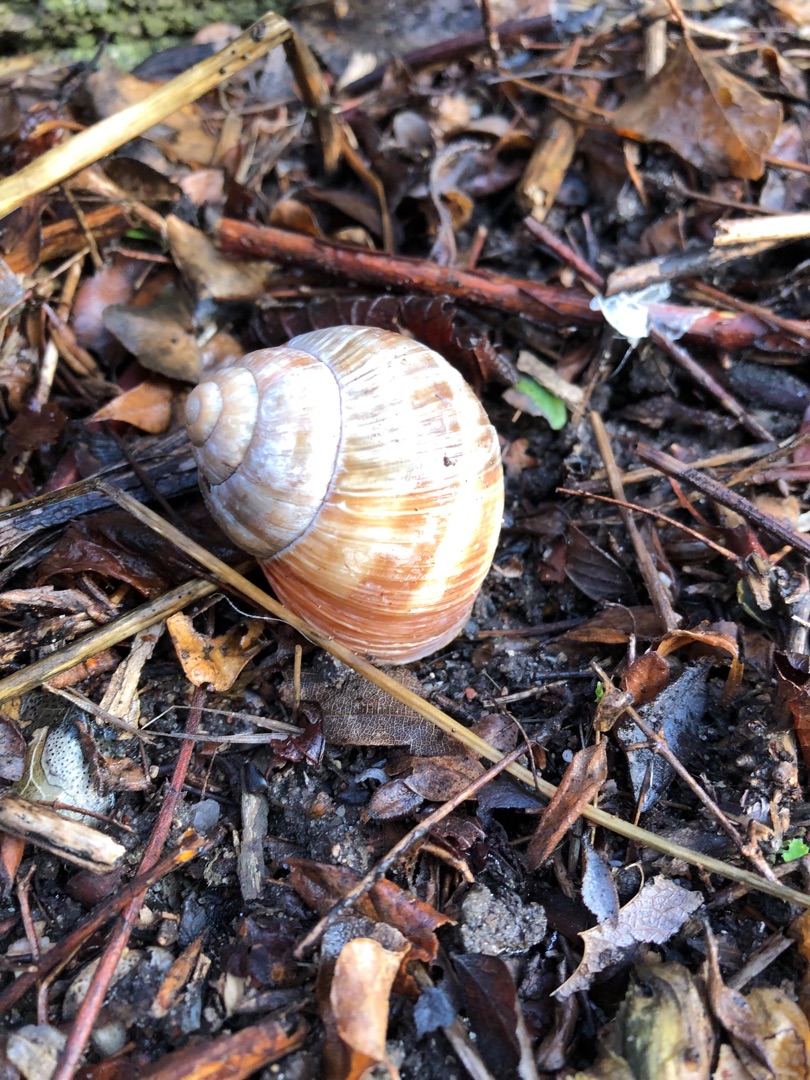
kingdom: Animalia
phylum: Mollusca
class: Gastropoda
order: Stylommatophora
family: Helicidae
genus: Helix
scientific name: Helix pomatia
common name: Vinbjergsnegl
